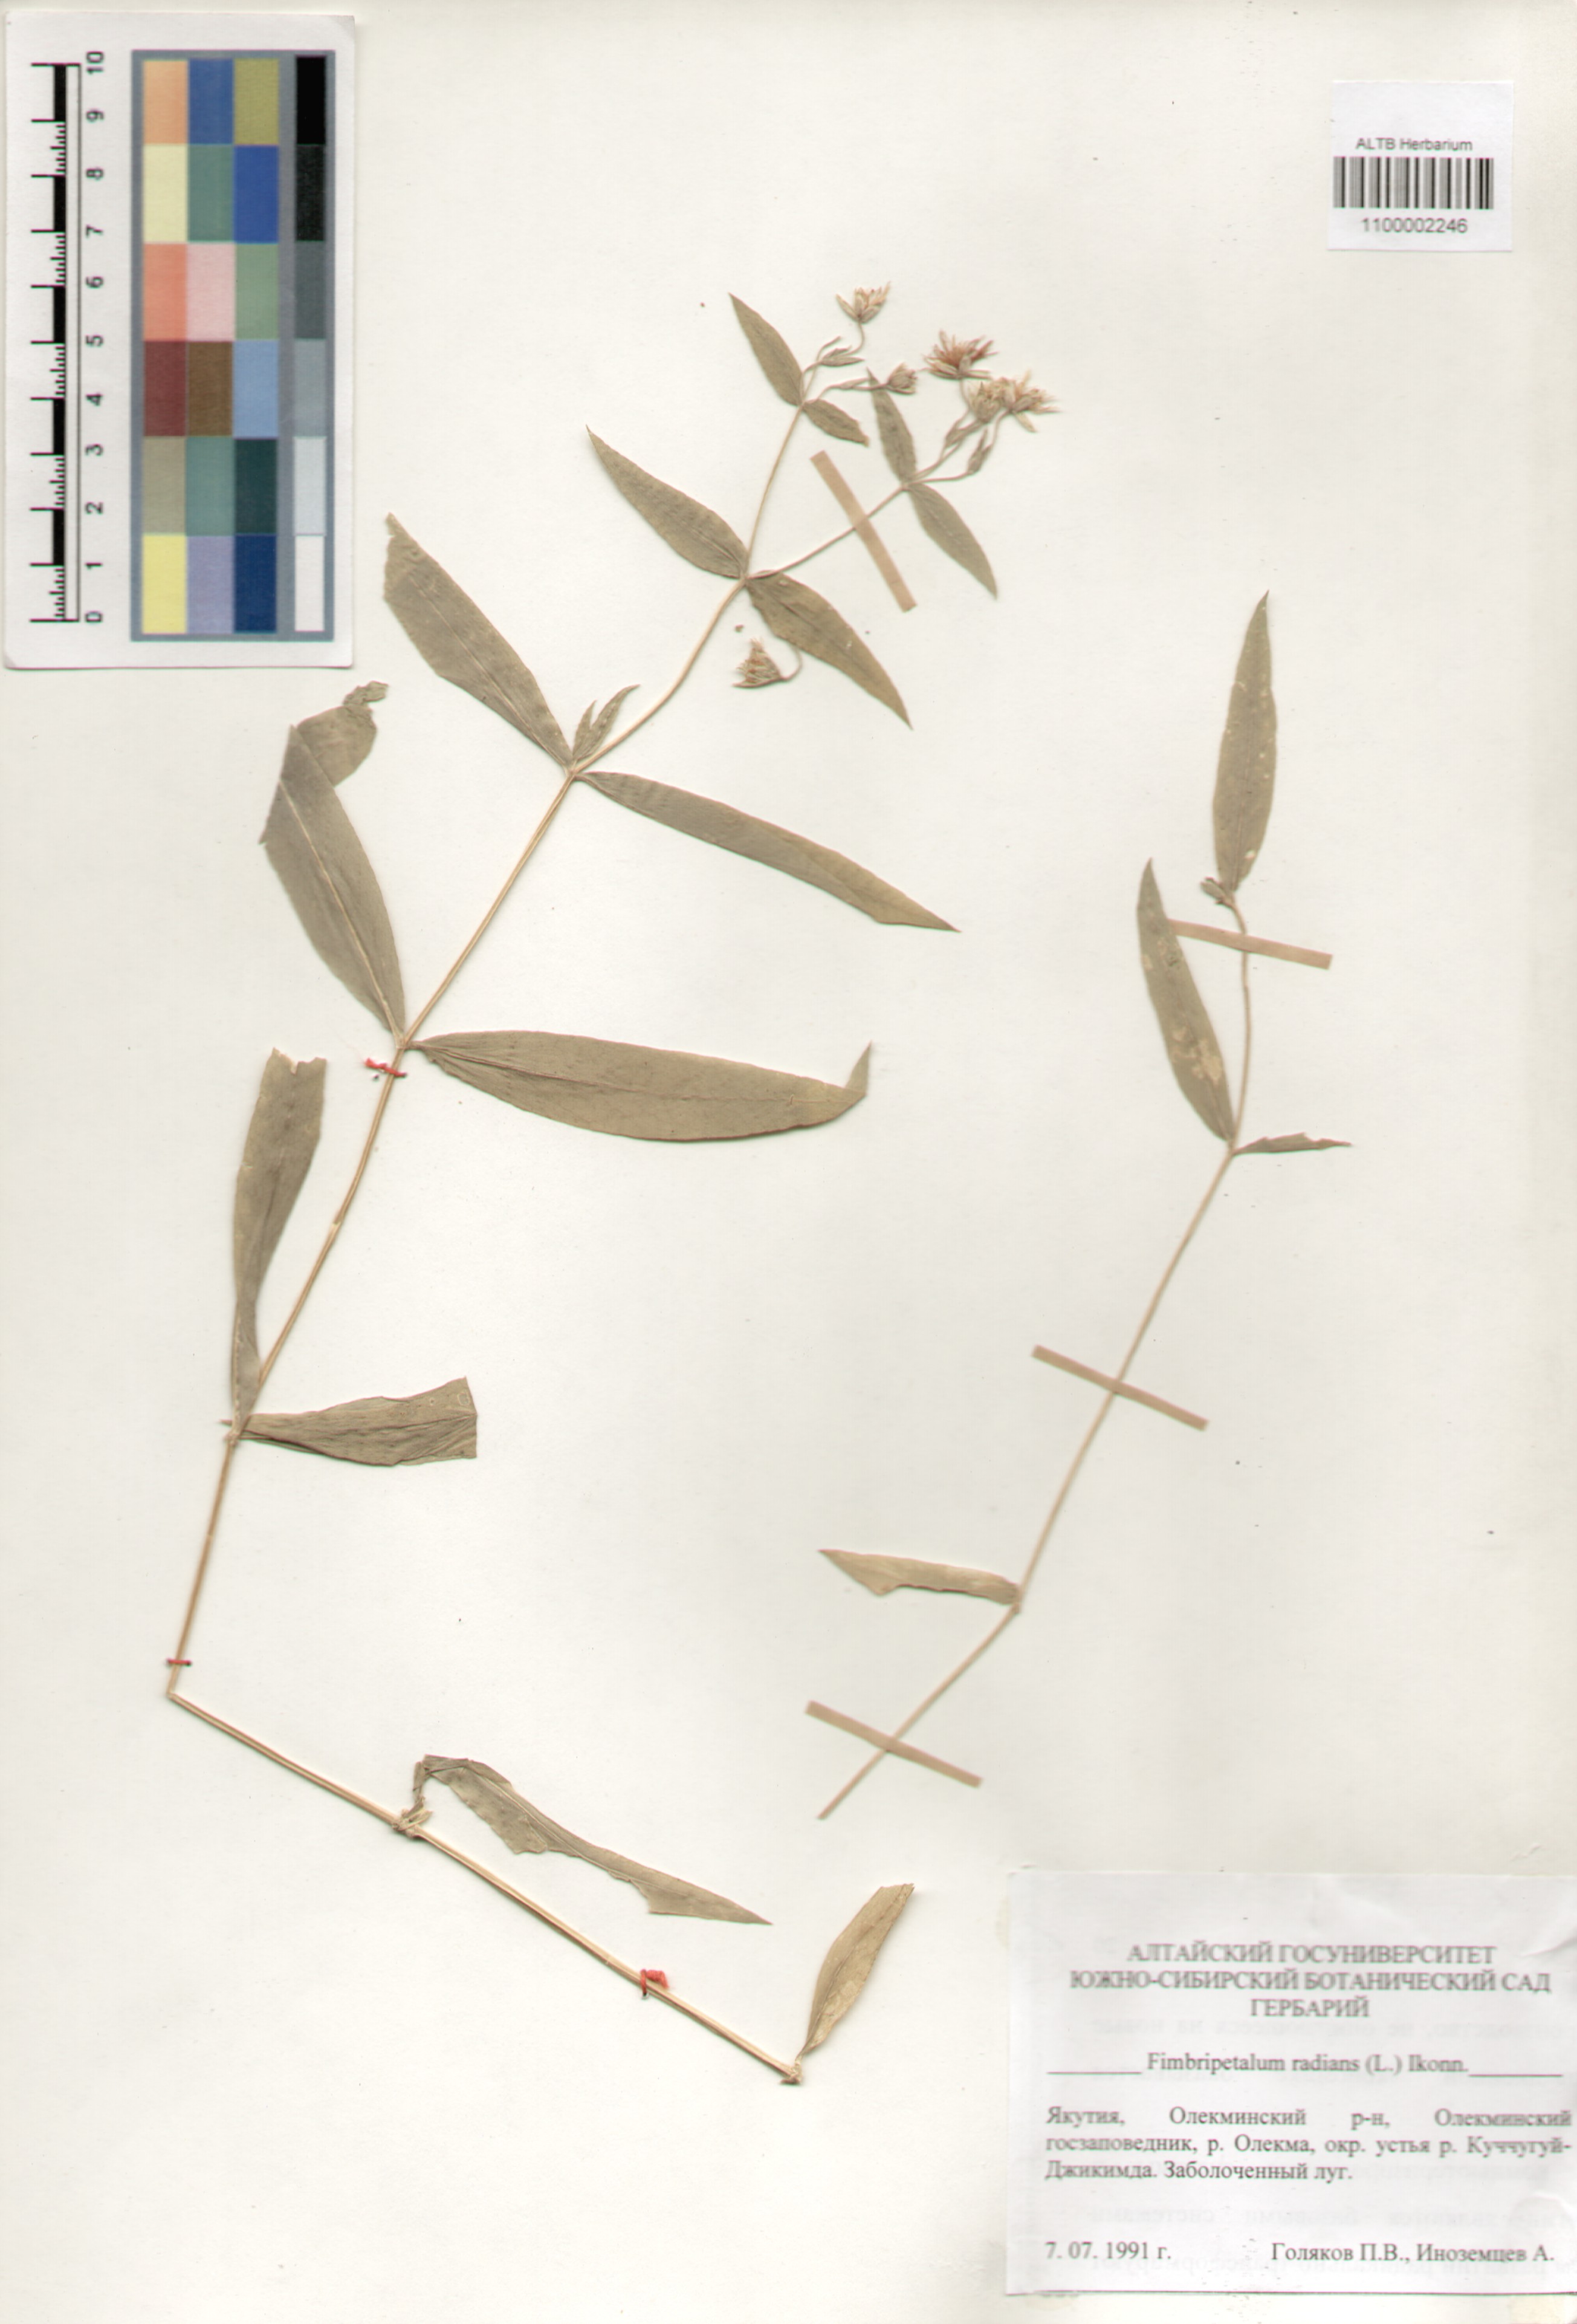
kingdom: Plantae
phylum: Tracheophyta
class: Magnoliopsida
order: Caryophyllales
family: Caryophyllaceae
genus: Stellaria
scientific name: Stellaria radians
